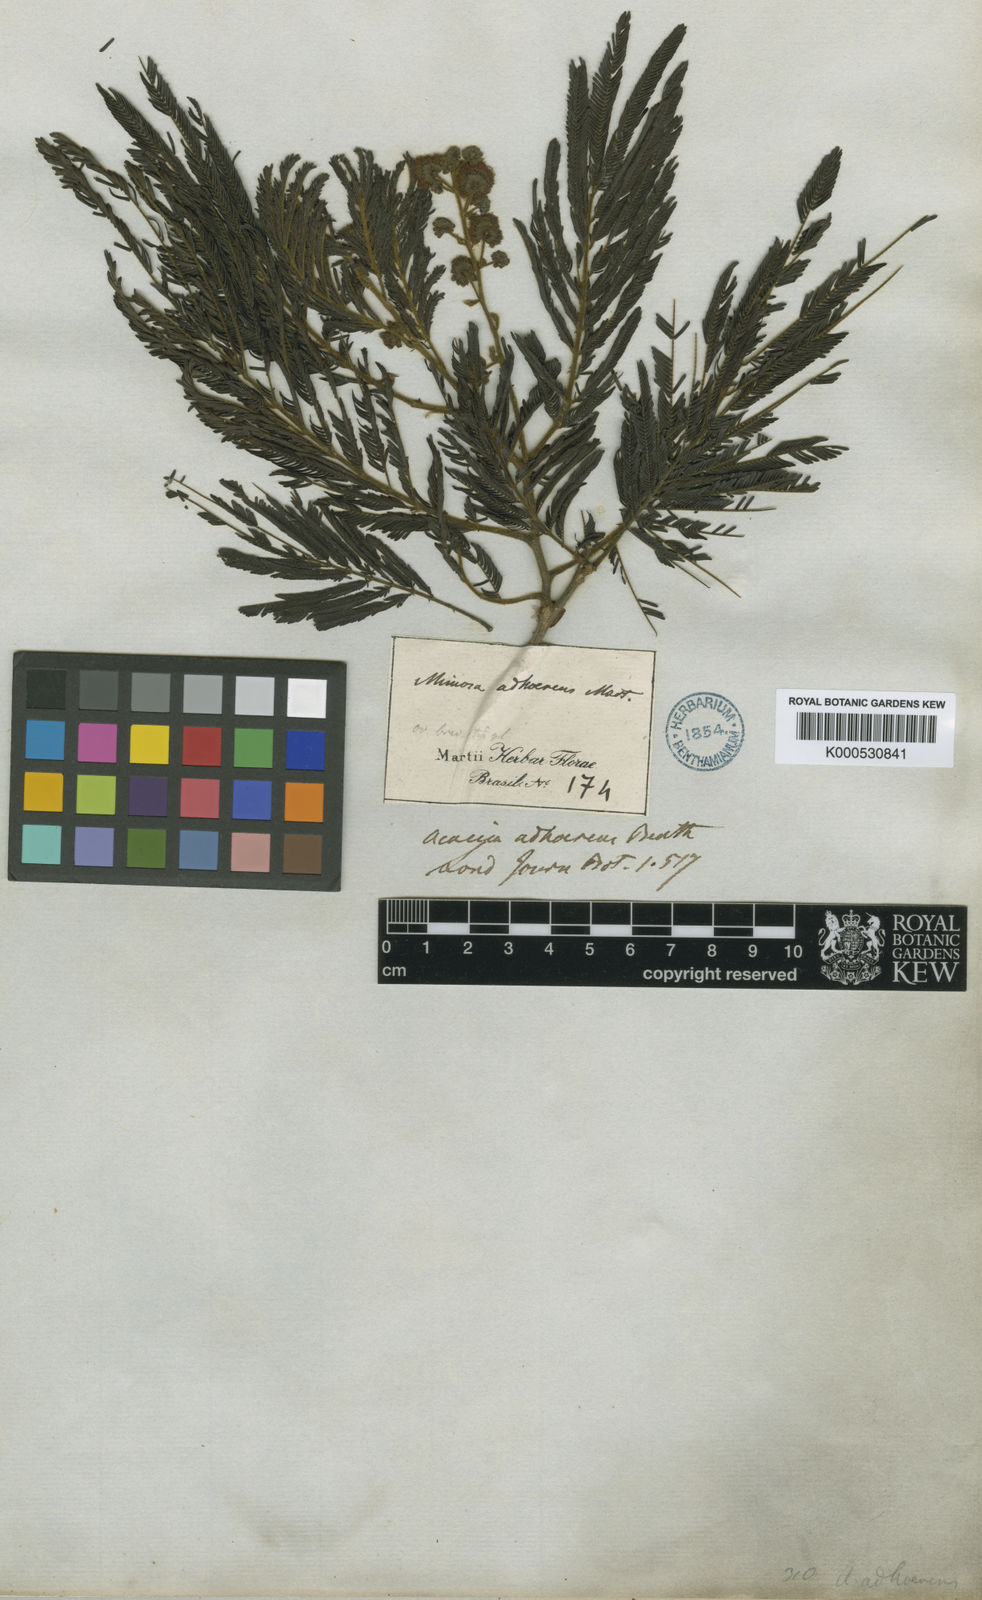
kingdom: Plantae
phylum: Tracheophyta
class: Magnoliopsida
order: Fabales
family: Fabaceae
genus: Senegalia
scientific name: Senegalia martiusiana
